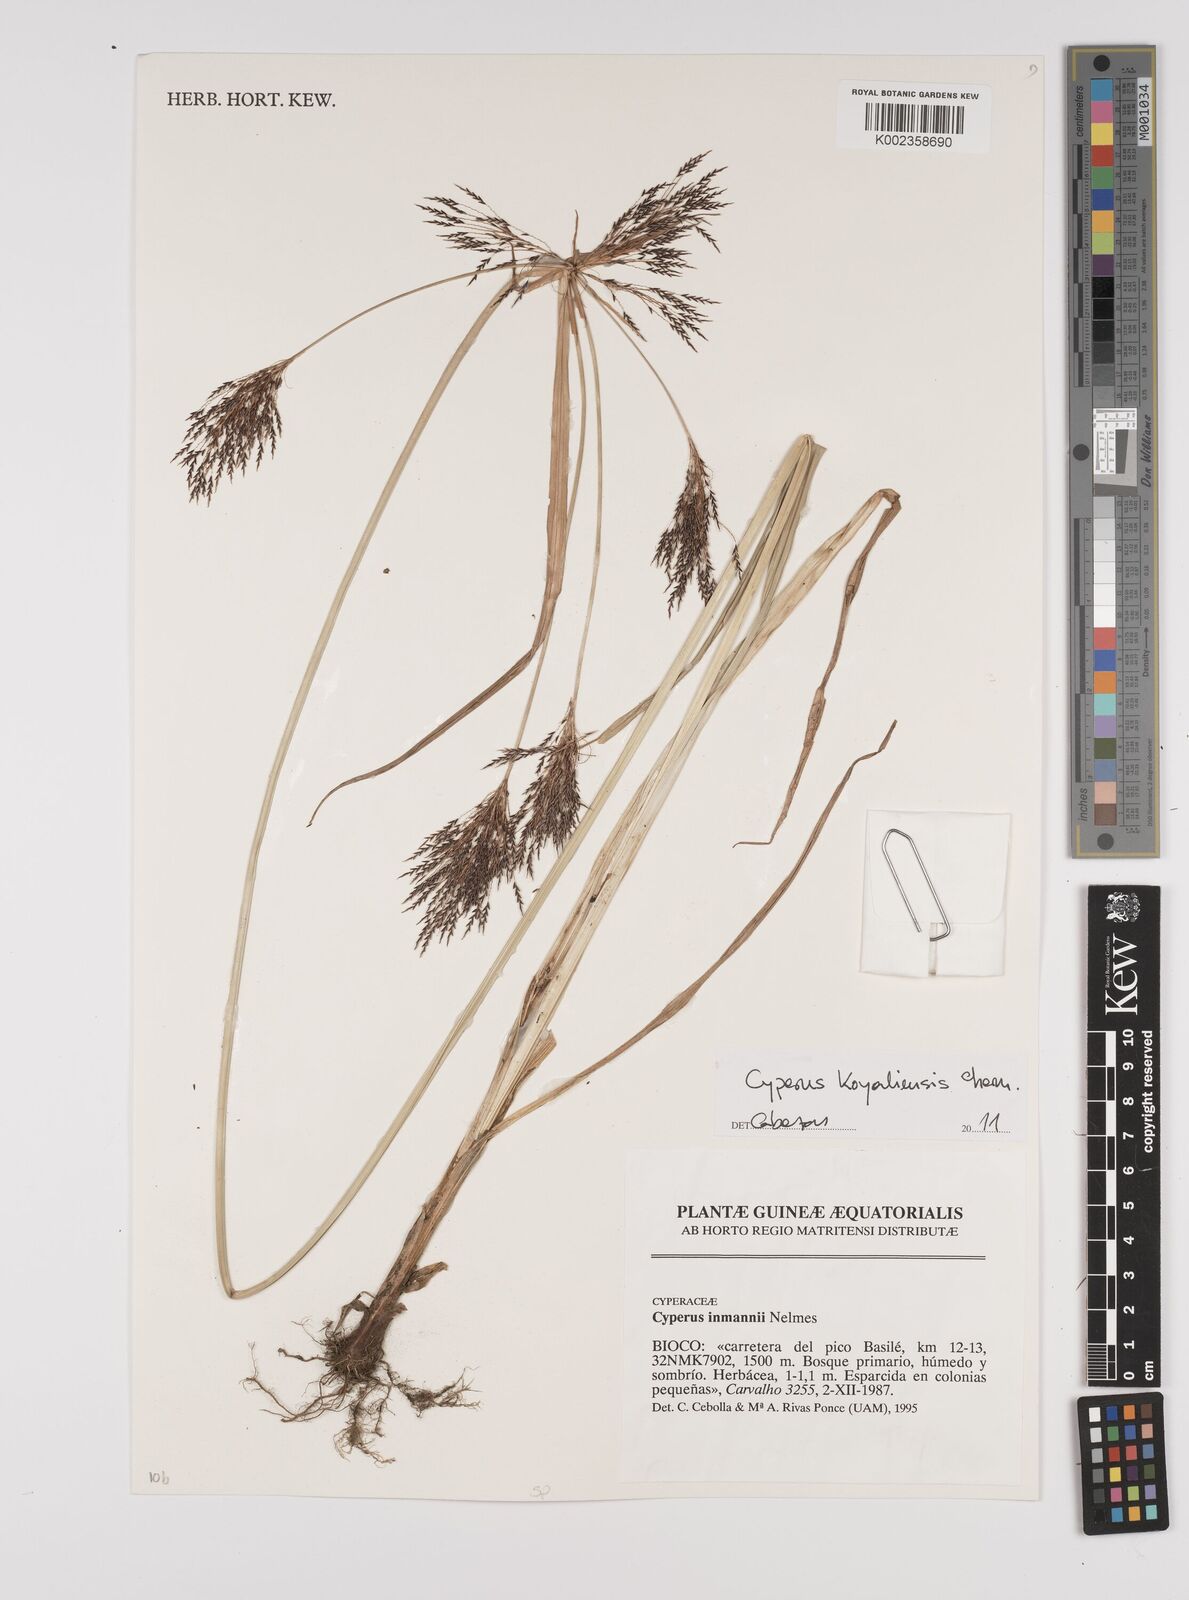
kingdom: Plantae
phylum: Tracheophyta
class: Liliopsida
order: Poales
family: Cyperaceae
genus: Cyperus
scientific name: Cyperus koyaliensis
